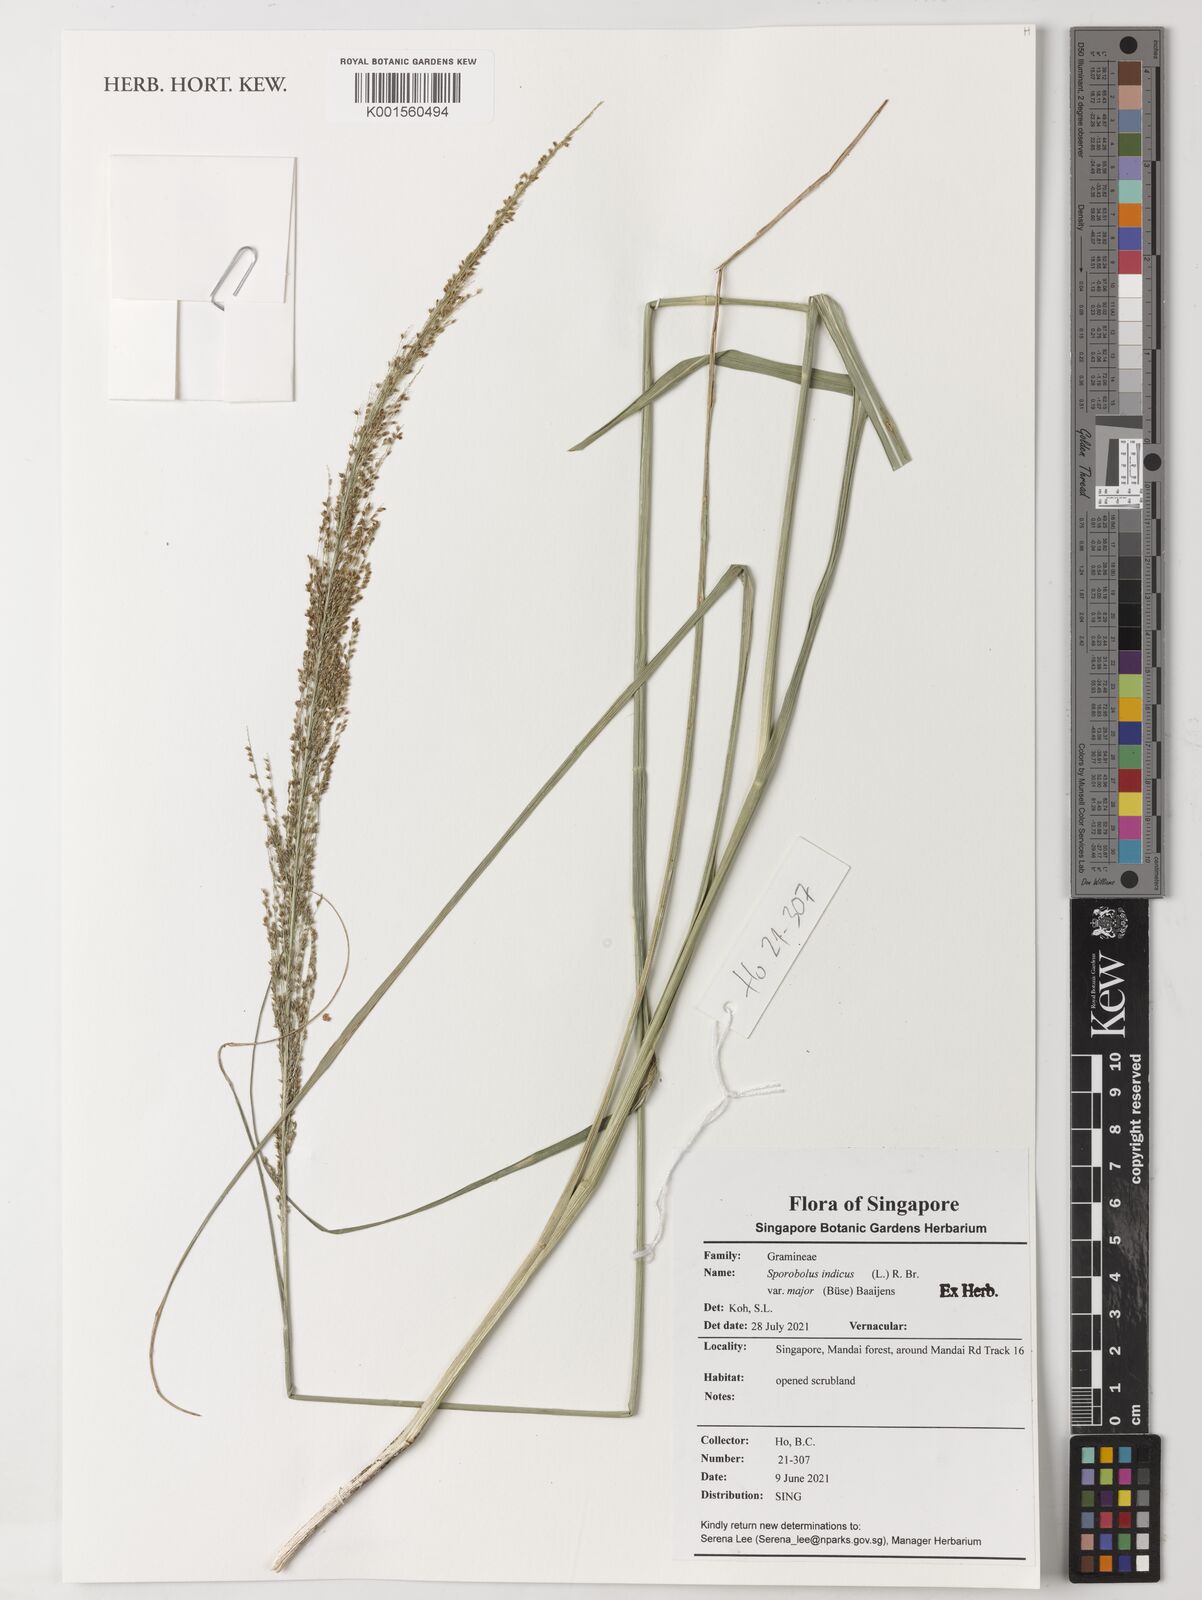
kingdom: Plantae
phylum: Tracheophyta
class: Liliopsida
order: Poales
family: Poaceae
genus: Sporobolus
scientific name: Sporobolus fertilis
